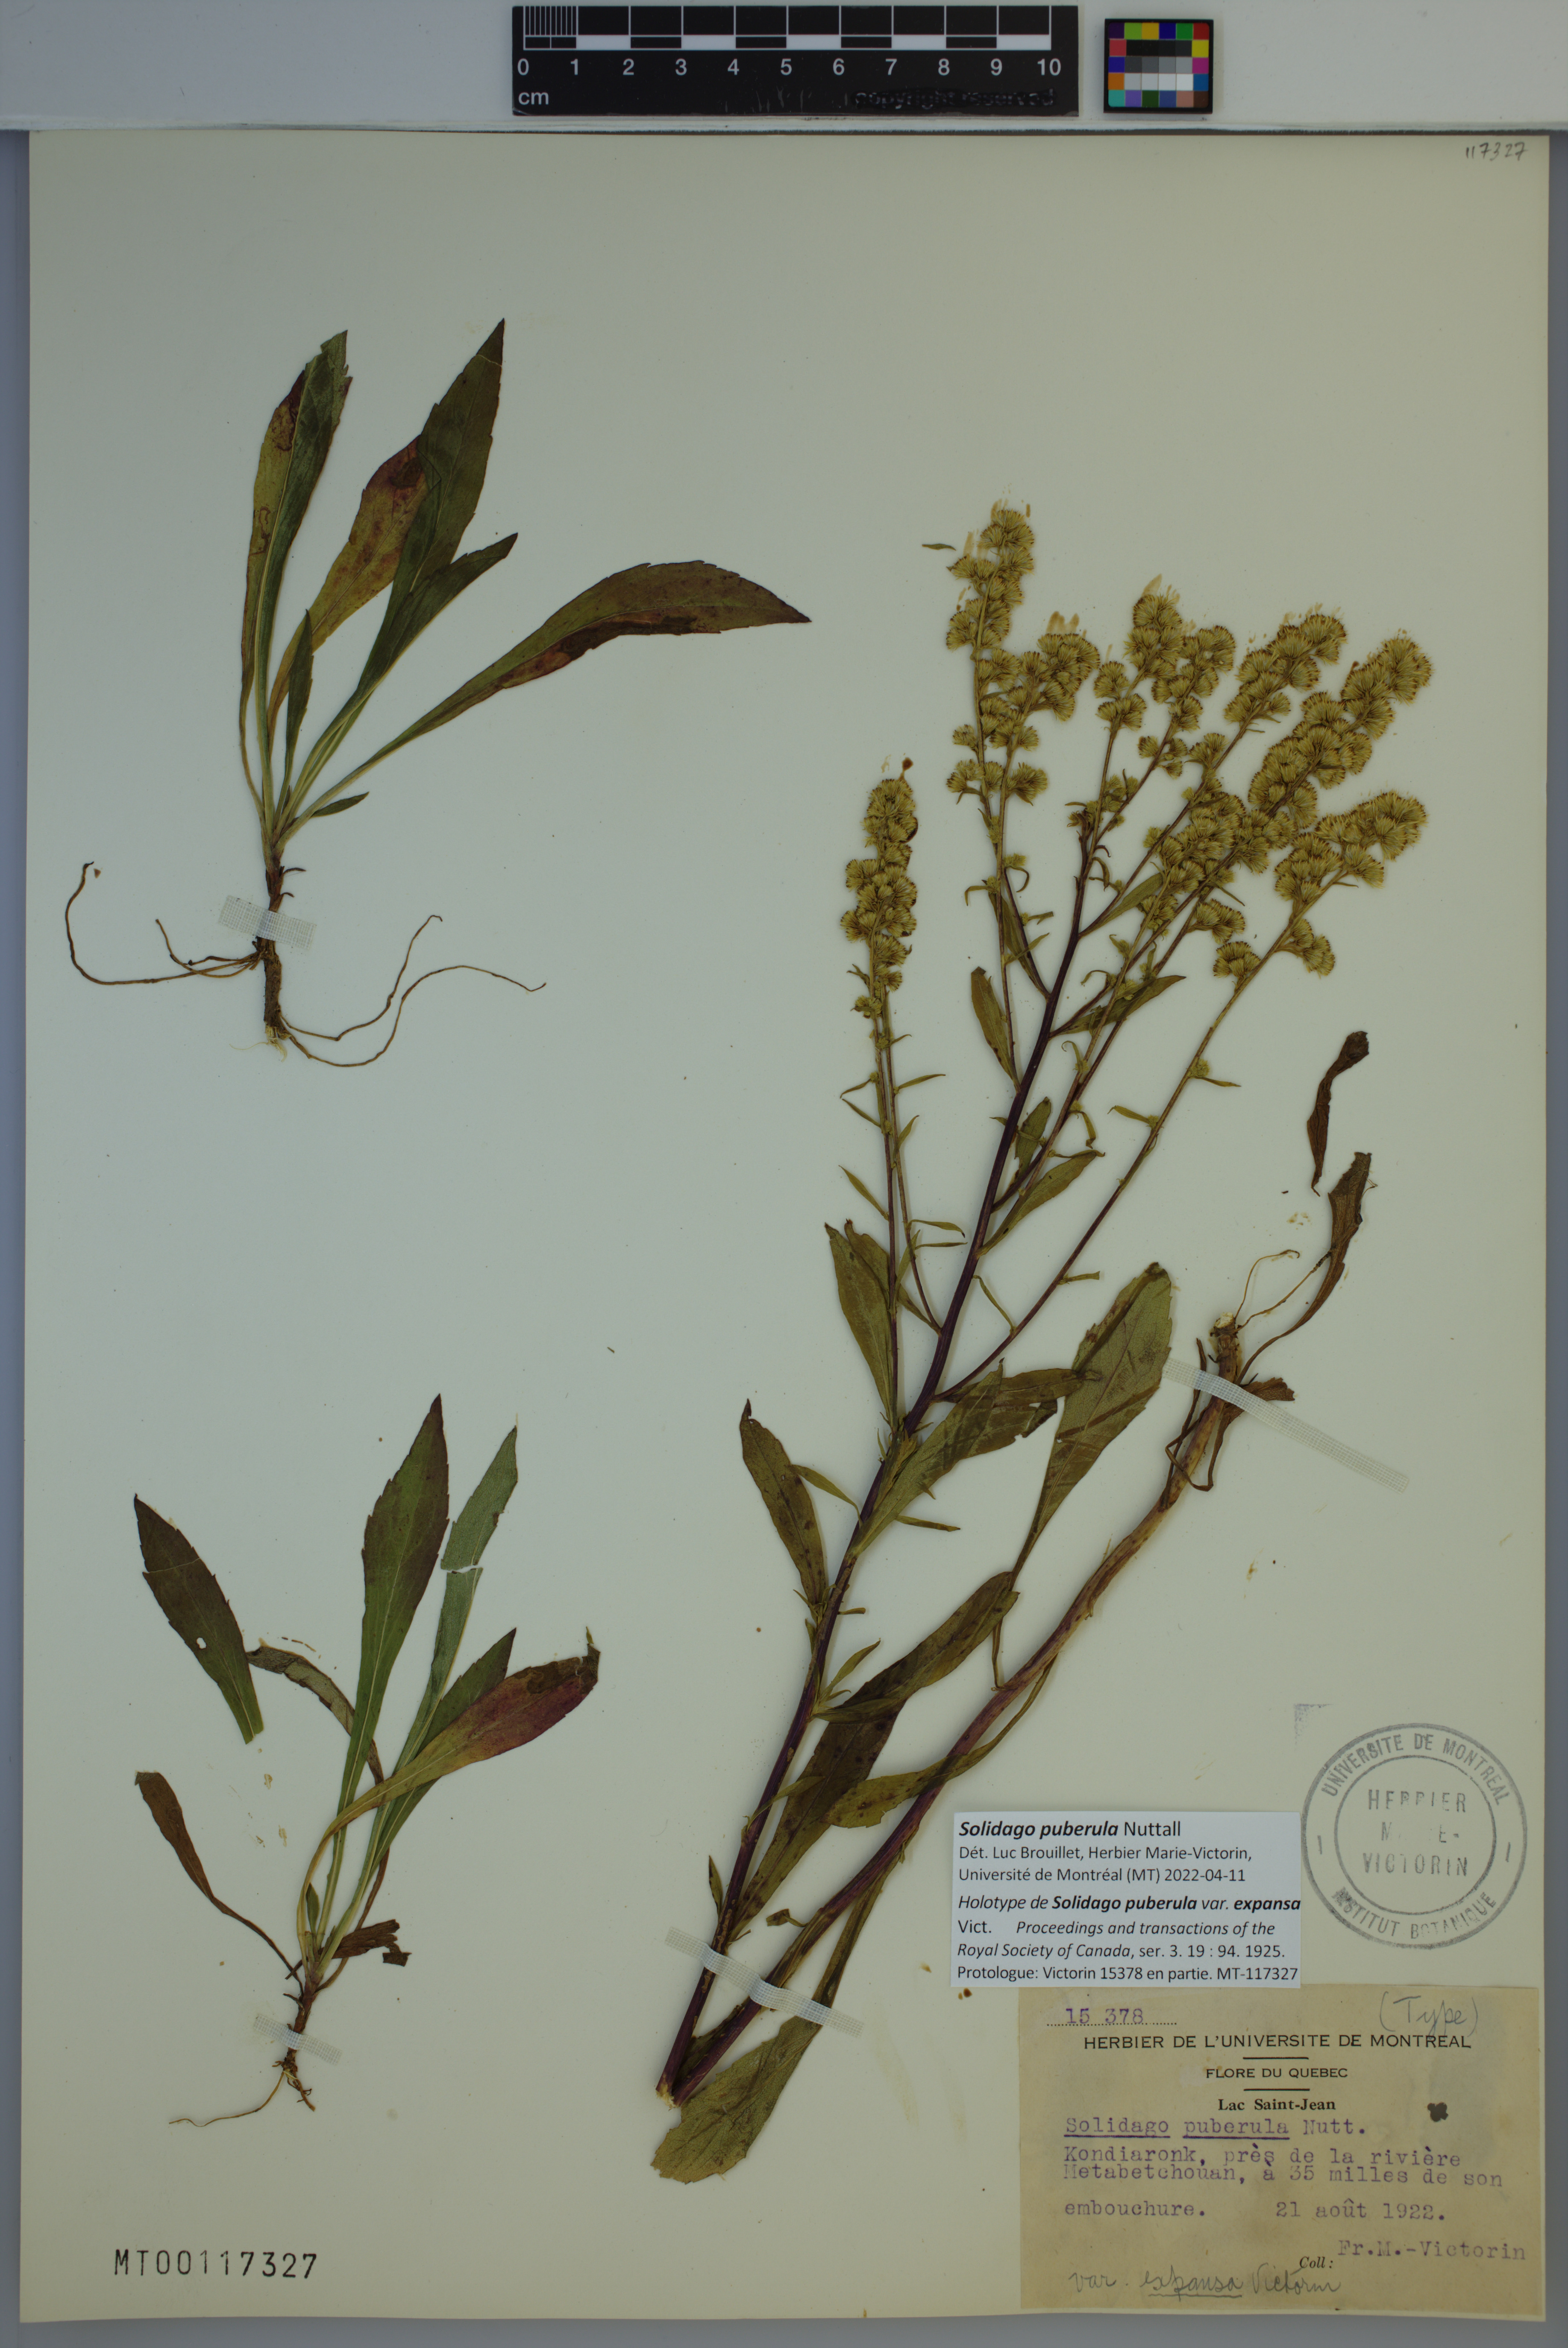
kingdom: Plantae
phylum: Tracheophyta
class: Magnoliopsida
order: Asterales
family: Asteraceae
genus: Solidago
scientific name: Solidago puberula
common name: Downy goldenrod
